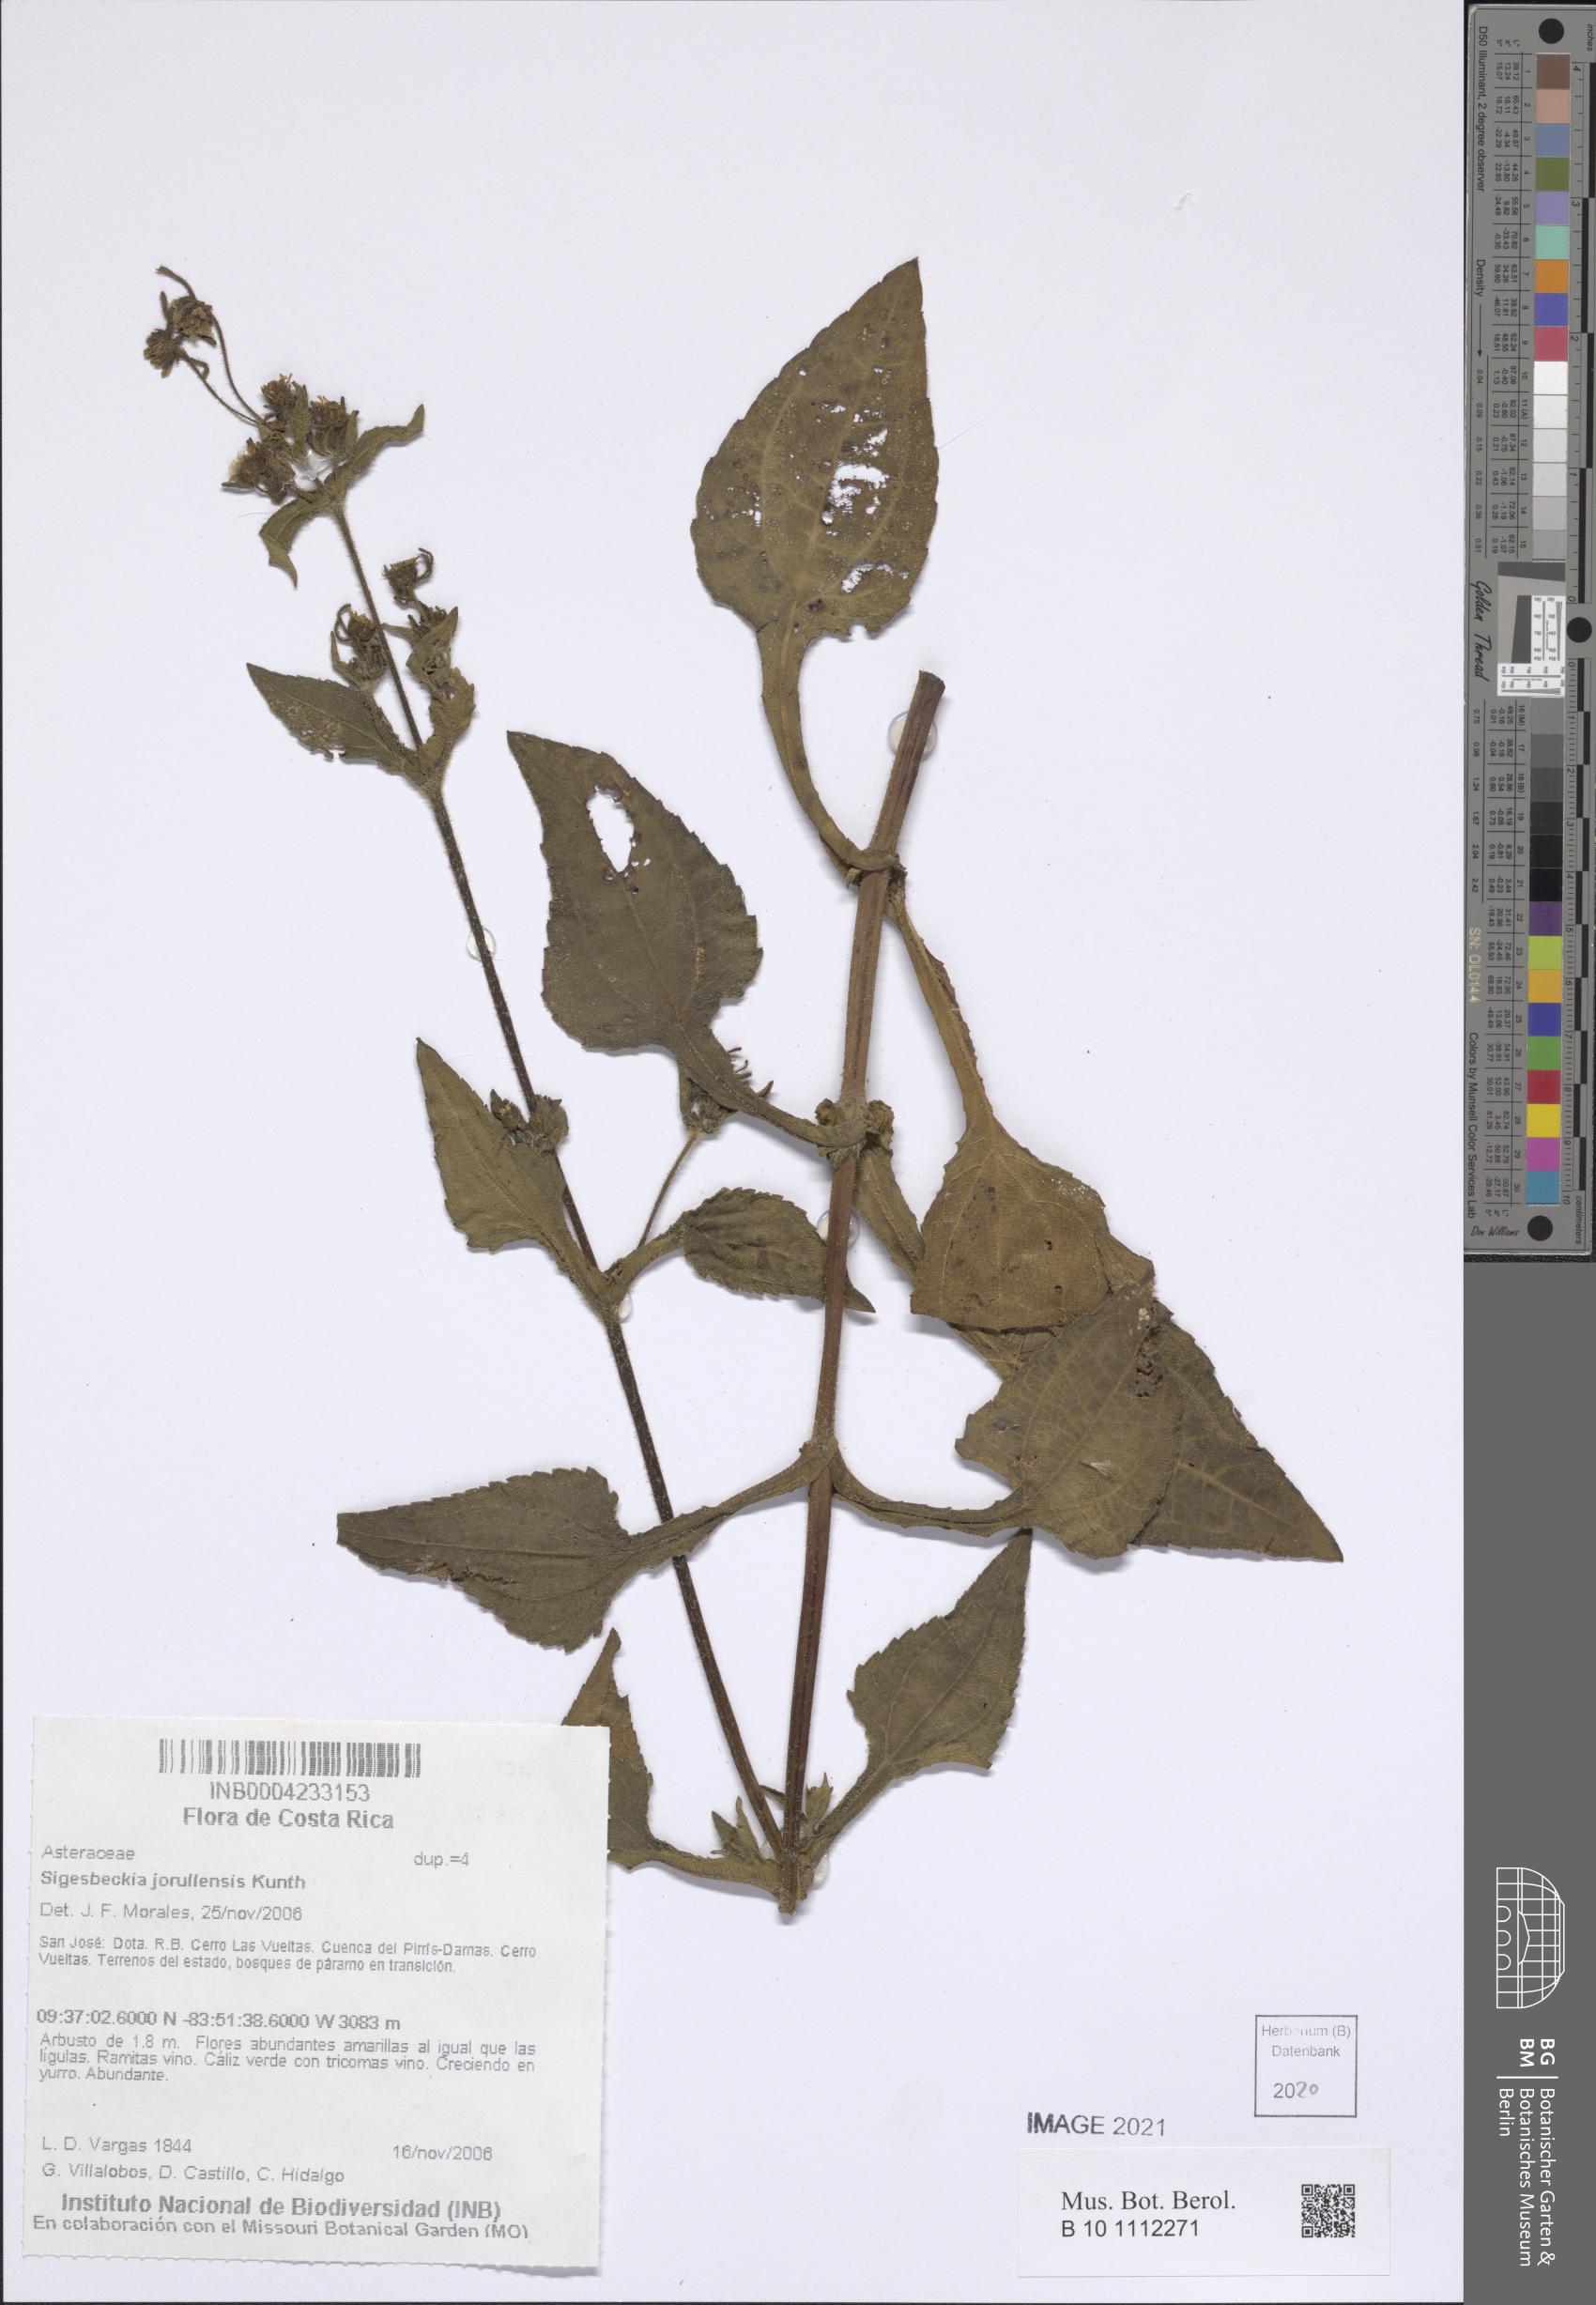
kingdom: Plantae
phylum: Tracheophyta
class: Magnoliopsida
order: Asterales
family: Asteraceae
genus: Sigesbeckia
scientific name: Sigesbeckia jorullensis
